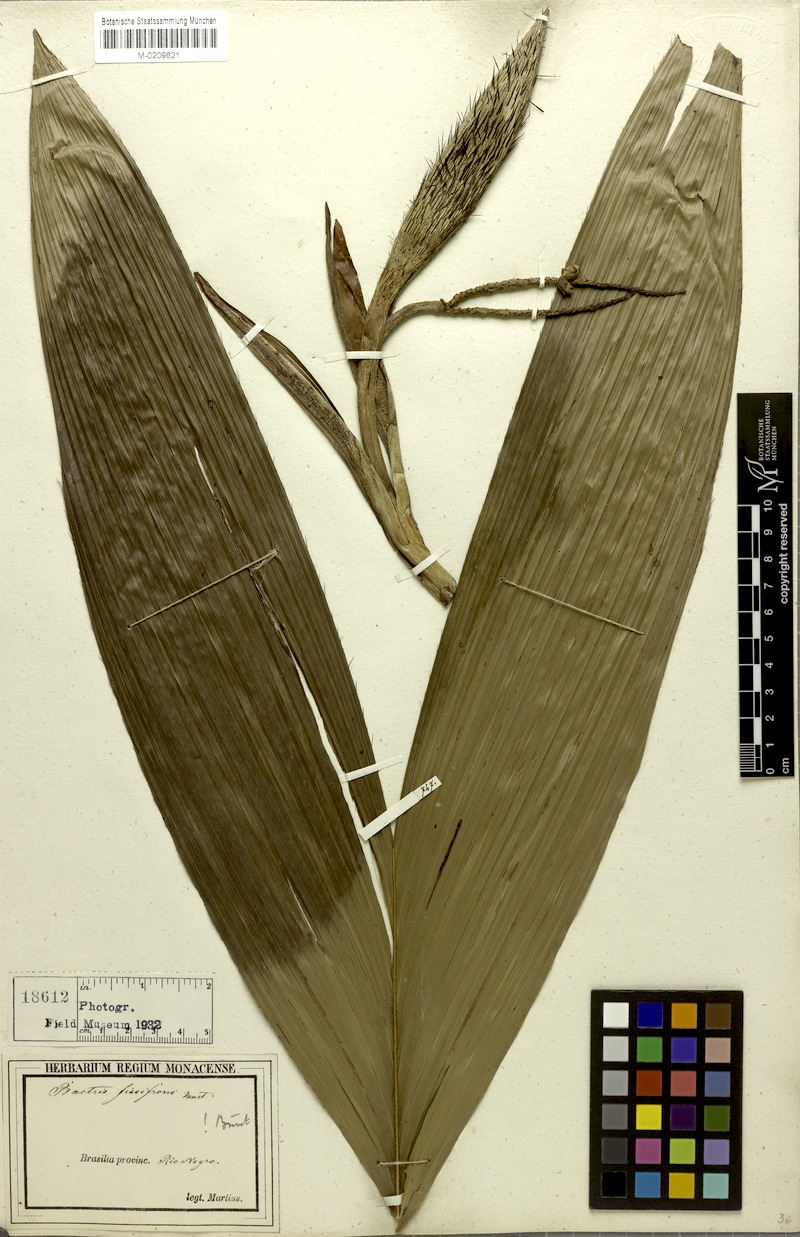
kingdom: Plantae
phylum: Tracheophyta
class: Liliopsida
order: Arecales
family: Arecaceae
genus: Bactris
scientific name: Bactris fissifrons
